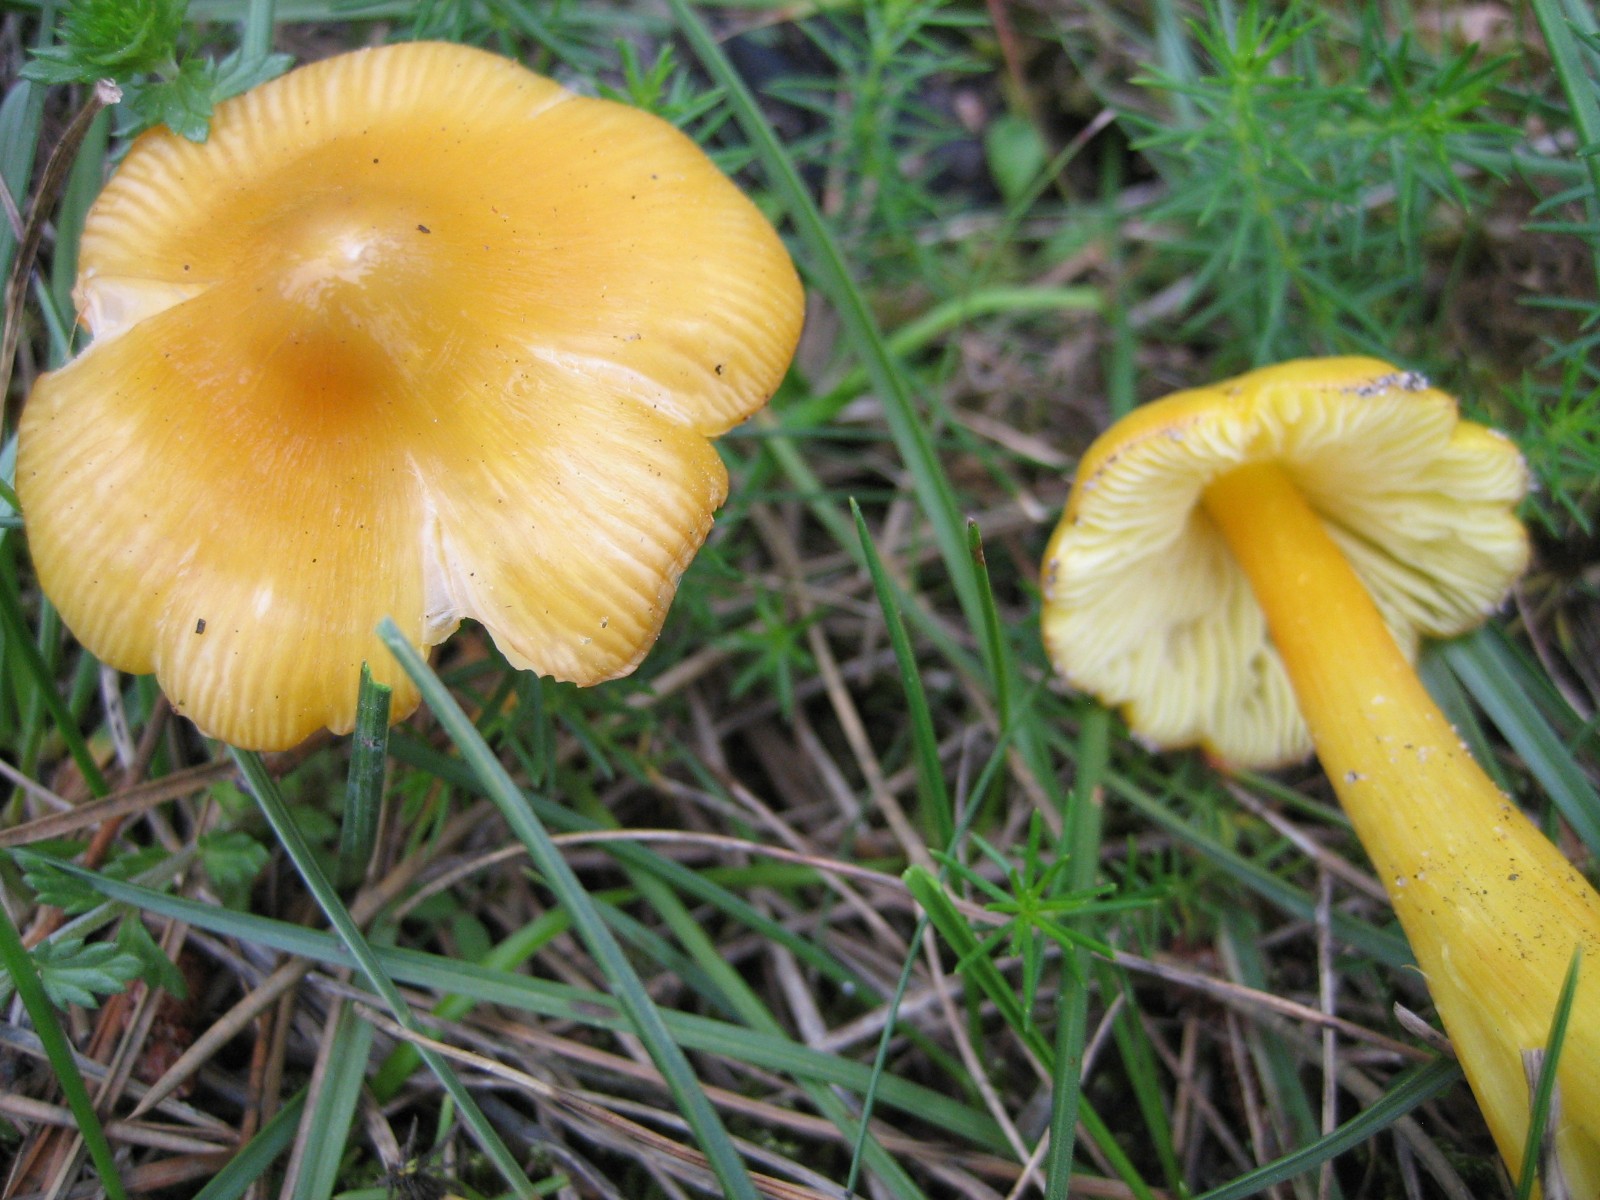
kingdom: Fungi
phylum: Basidiomycota
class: Agaricomycetes
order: Agaricales
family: Hygrophoraceae
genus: Hygrocybe
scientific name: Hygrocybe
